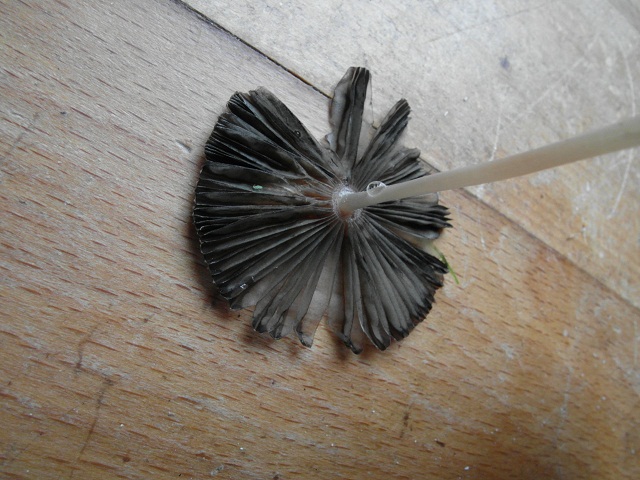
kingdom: Fungi
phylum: Basidiomycota
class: Agaricomycetes
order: Agaricales
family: Psathyrellaceae
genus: Parasola
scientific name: Parasola kuehneri
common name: skygge-hjulhat
